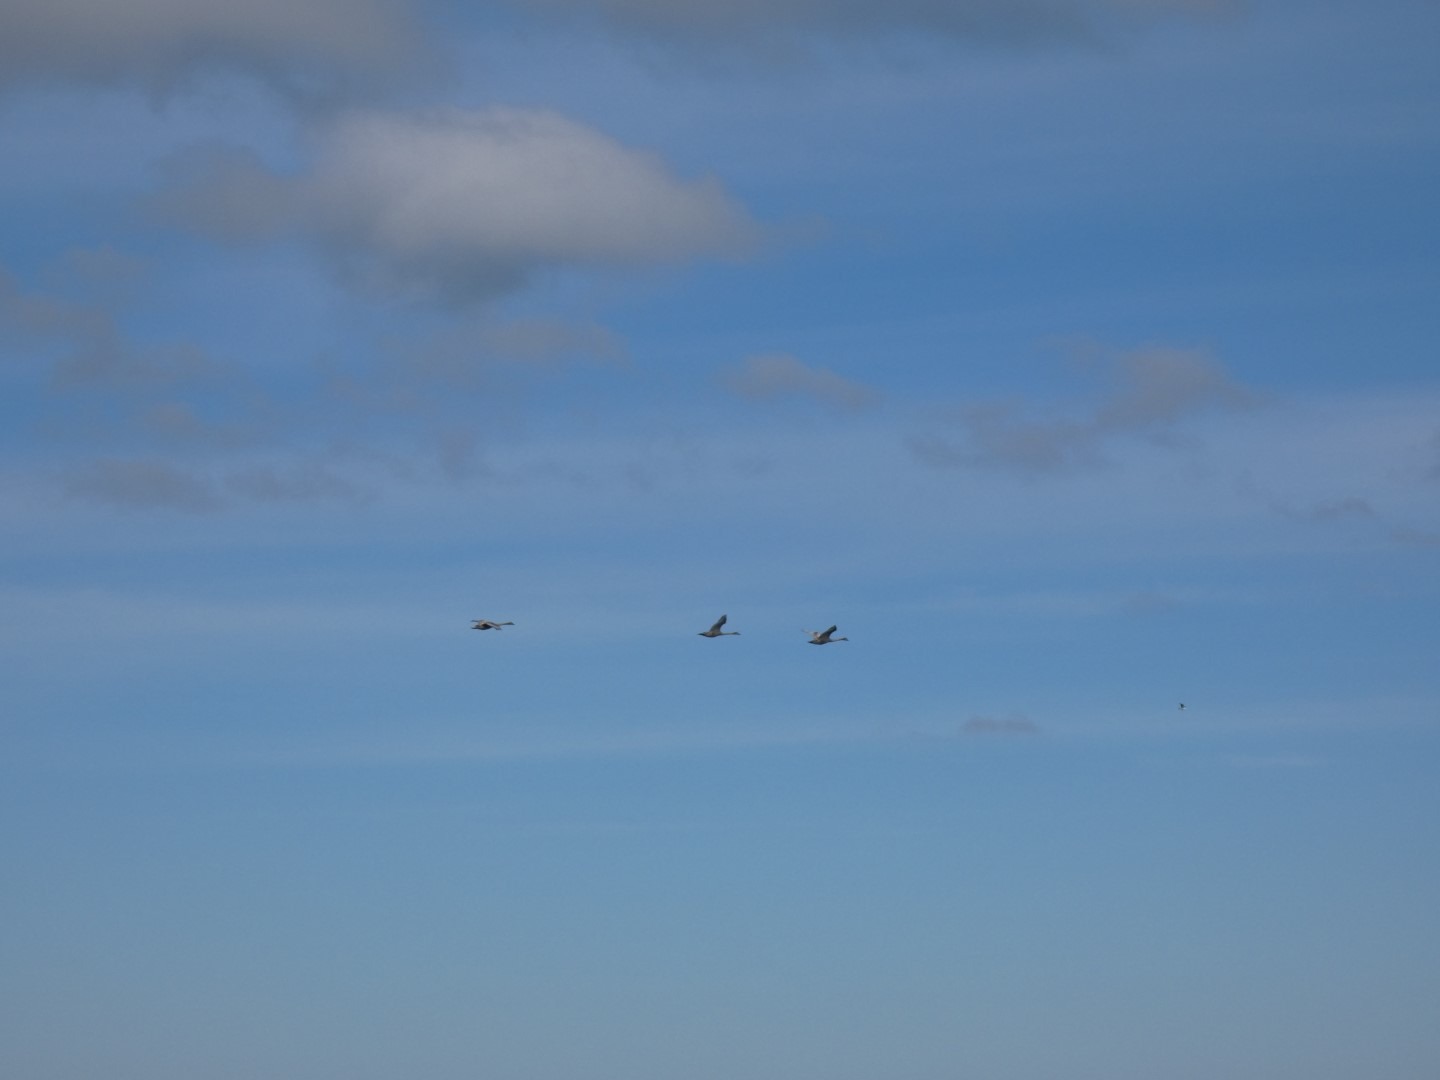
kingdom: Animalia
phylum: Chordata
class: Aves
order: Anseriformes
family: Anatidae
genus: Cygnus
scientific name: Cygnus olor
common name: Knopsvane
